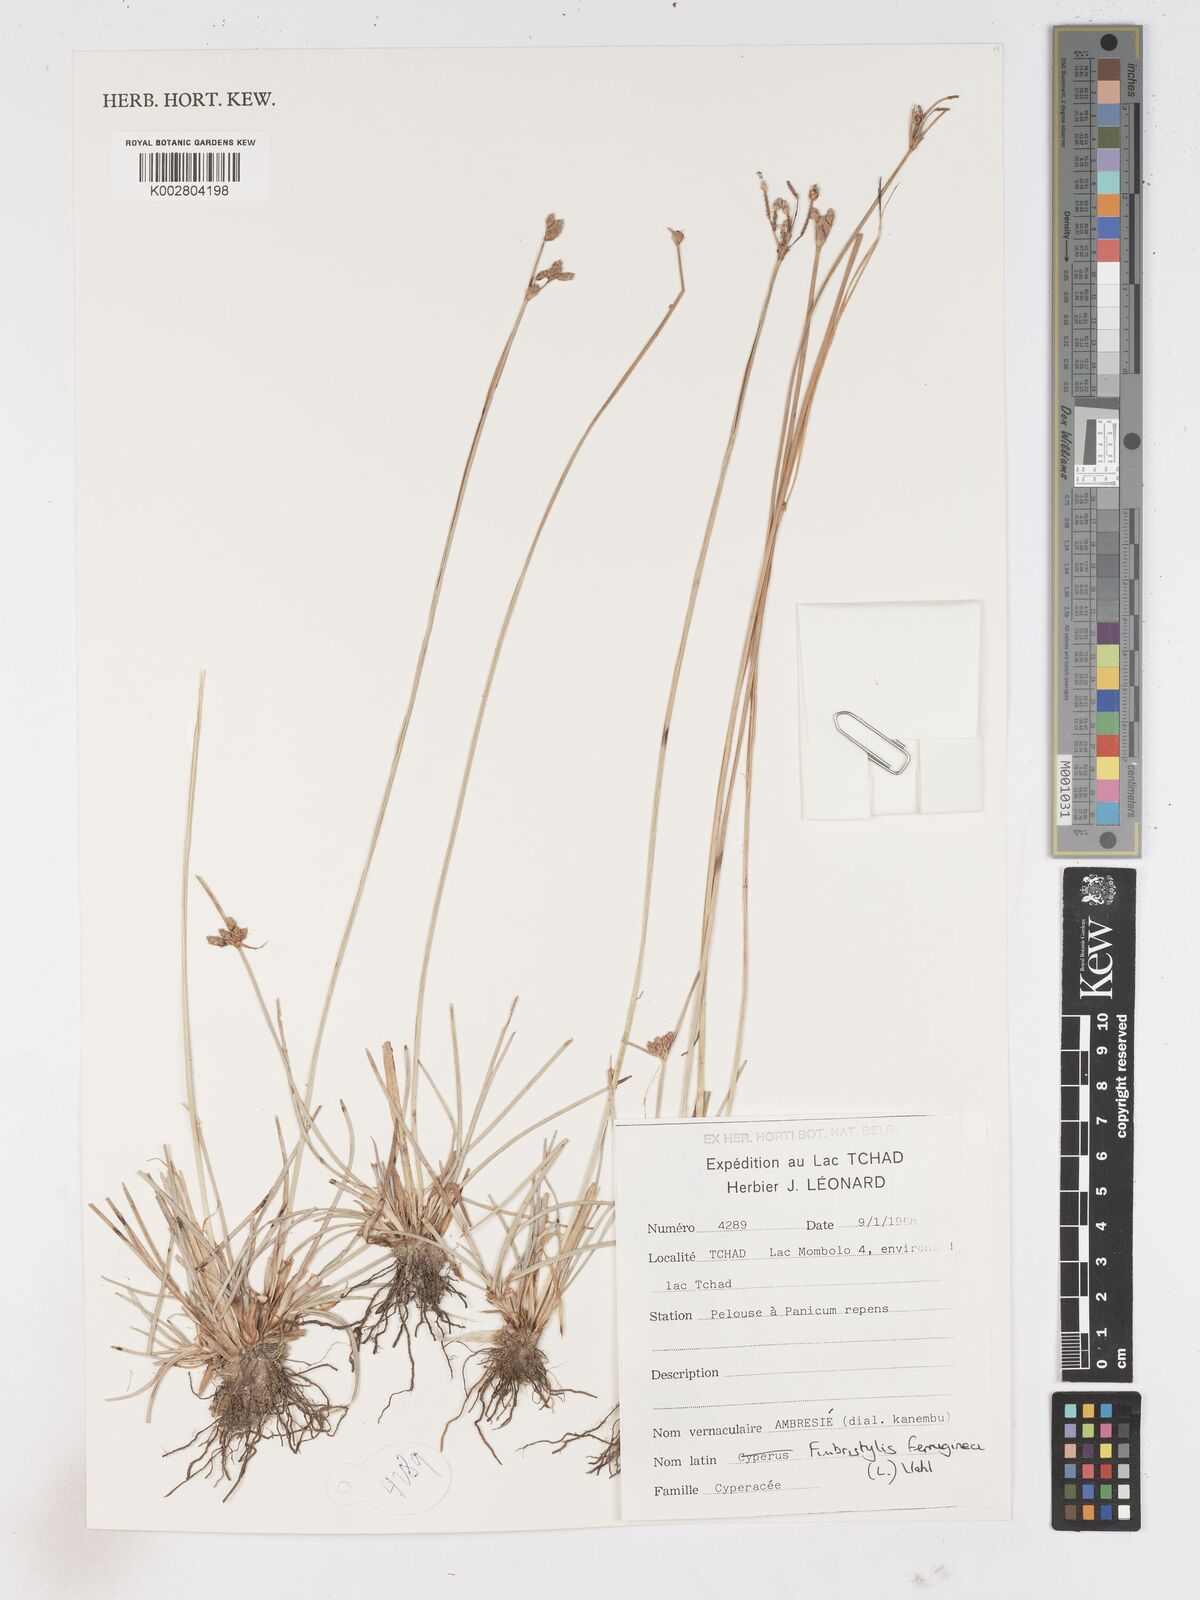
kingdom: Plantae
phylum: Tracheophyta
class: Liliopsida
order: Poales
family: Cyperaceae
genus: Fimbristylis
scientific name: Fimbristylis ferruginea
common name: West indian fimbry
